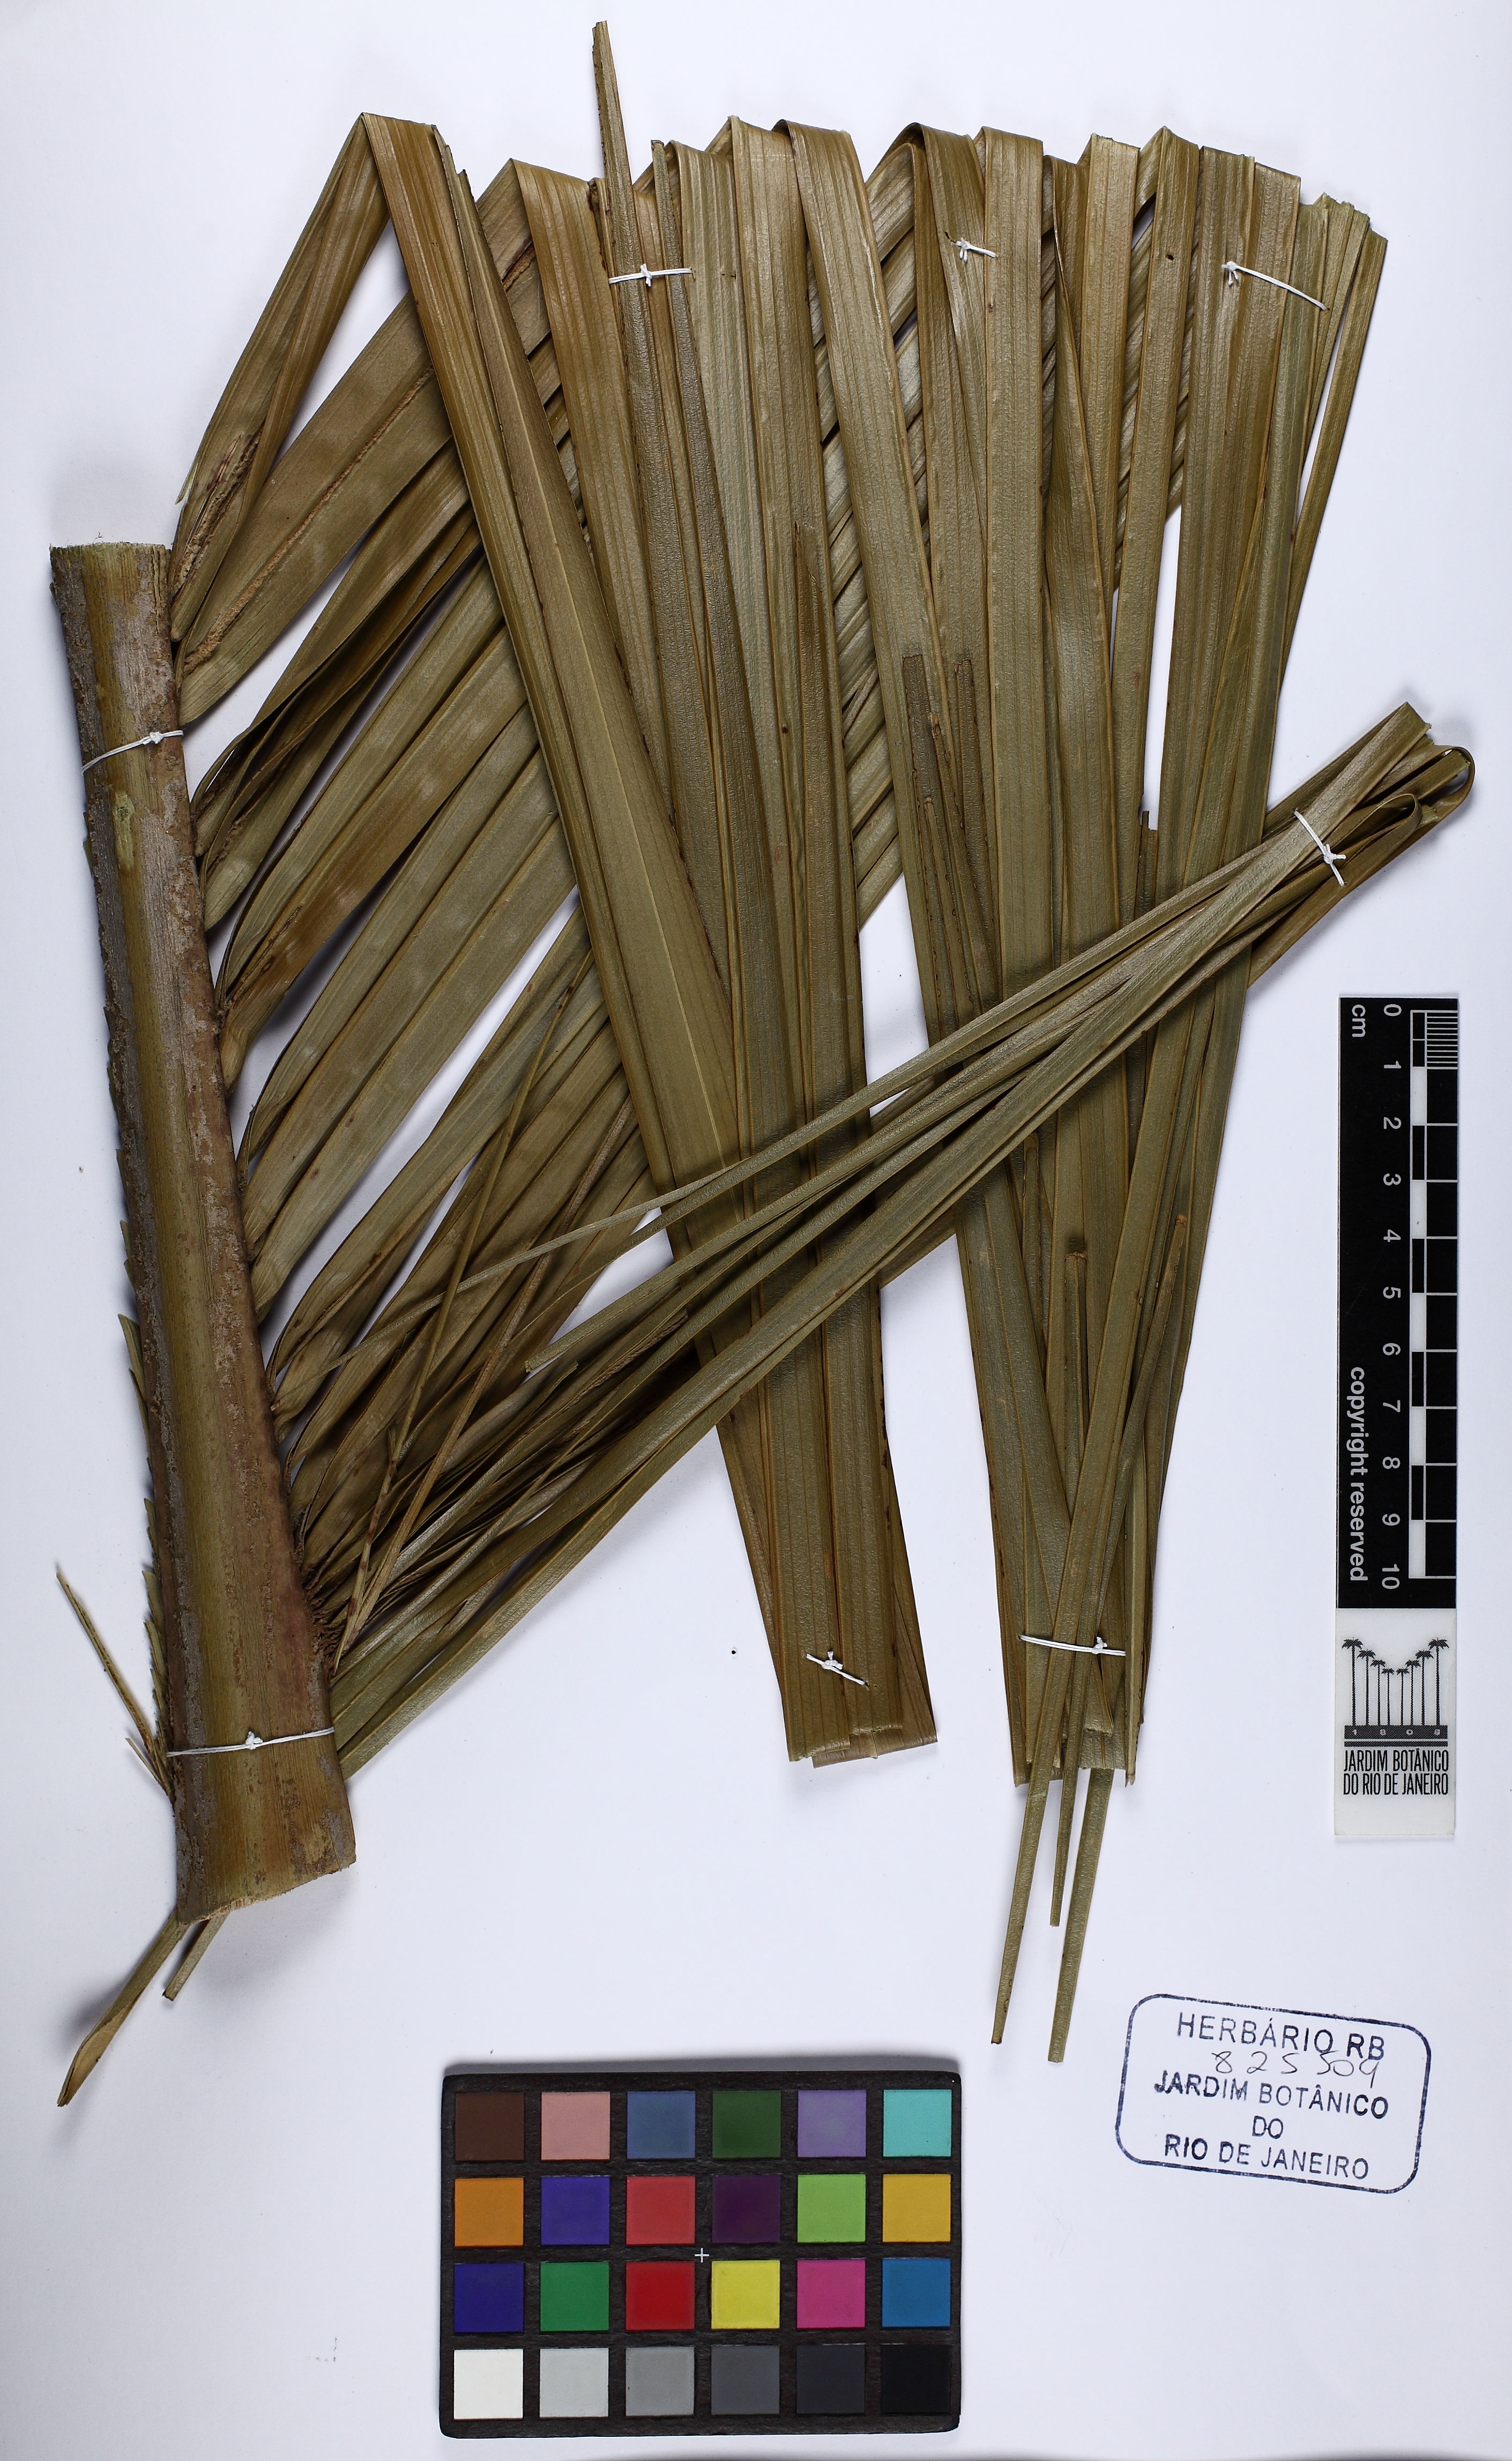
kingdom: Plantae
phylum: Tracheophyta
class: Liliopsida
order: Arecales
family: Arecaceae
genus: Syagrus
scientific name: Syagrus pseudococos
